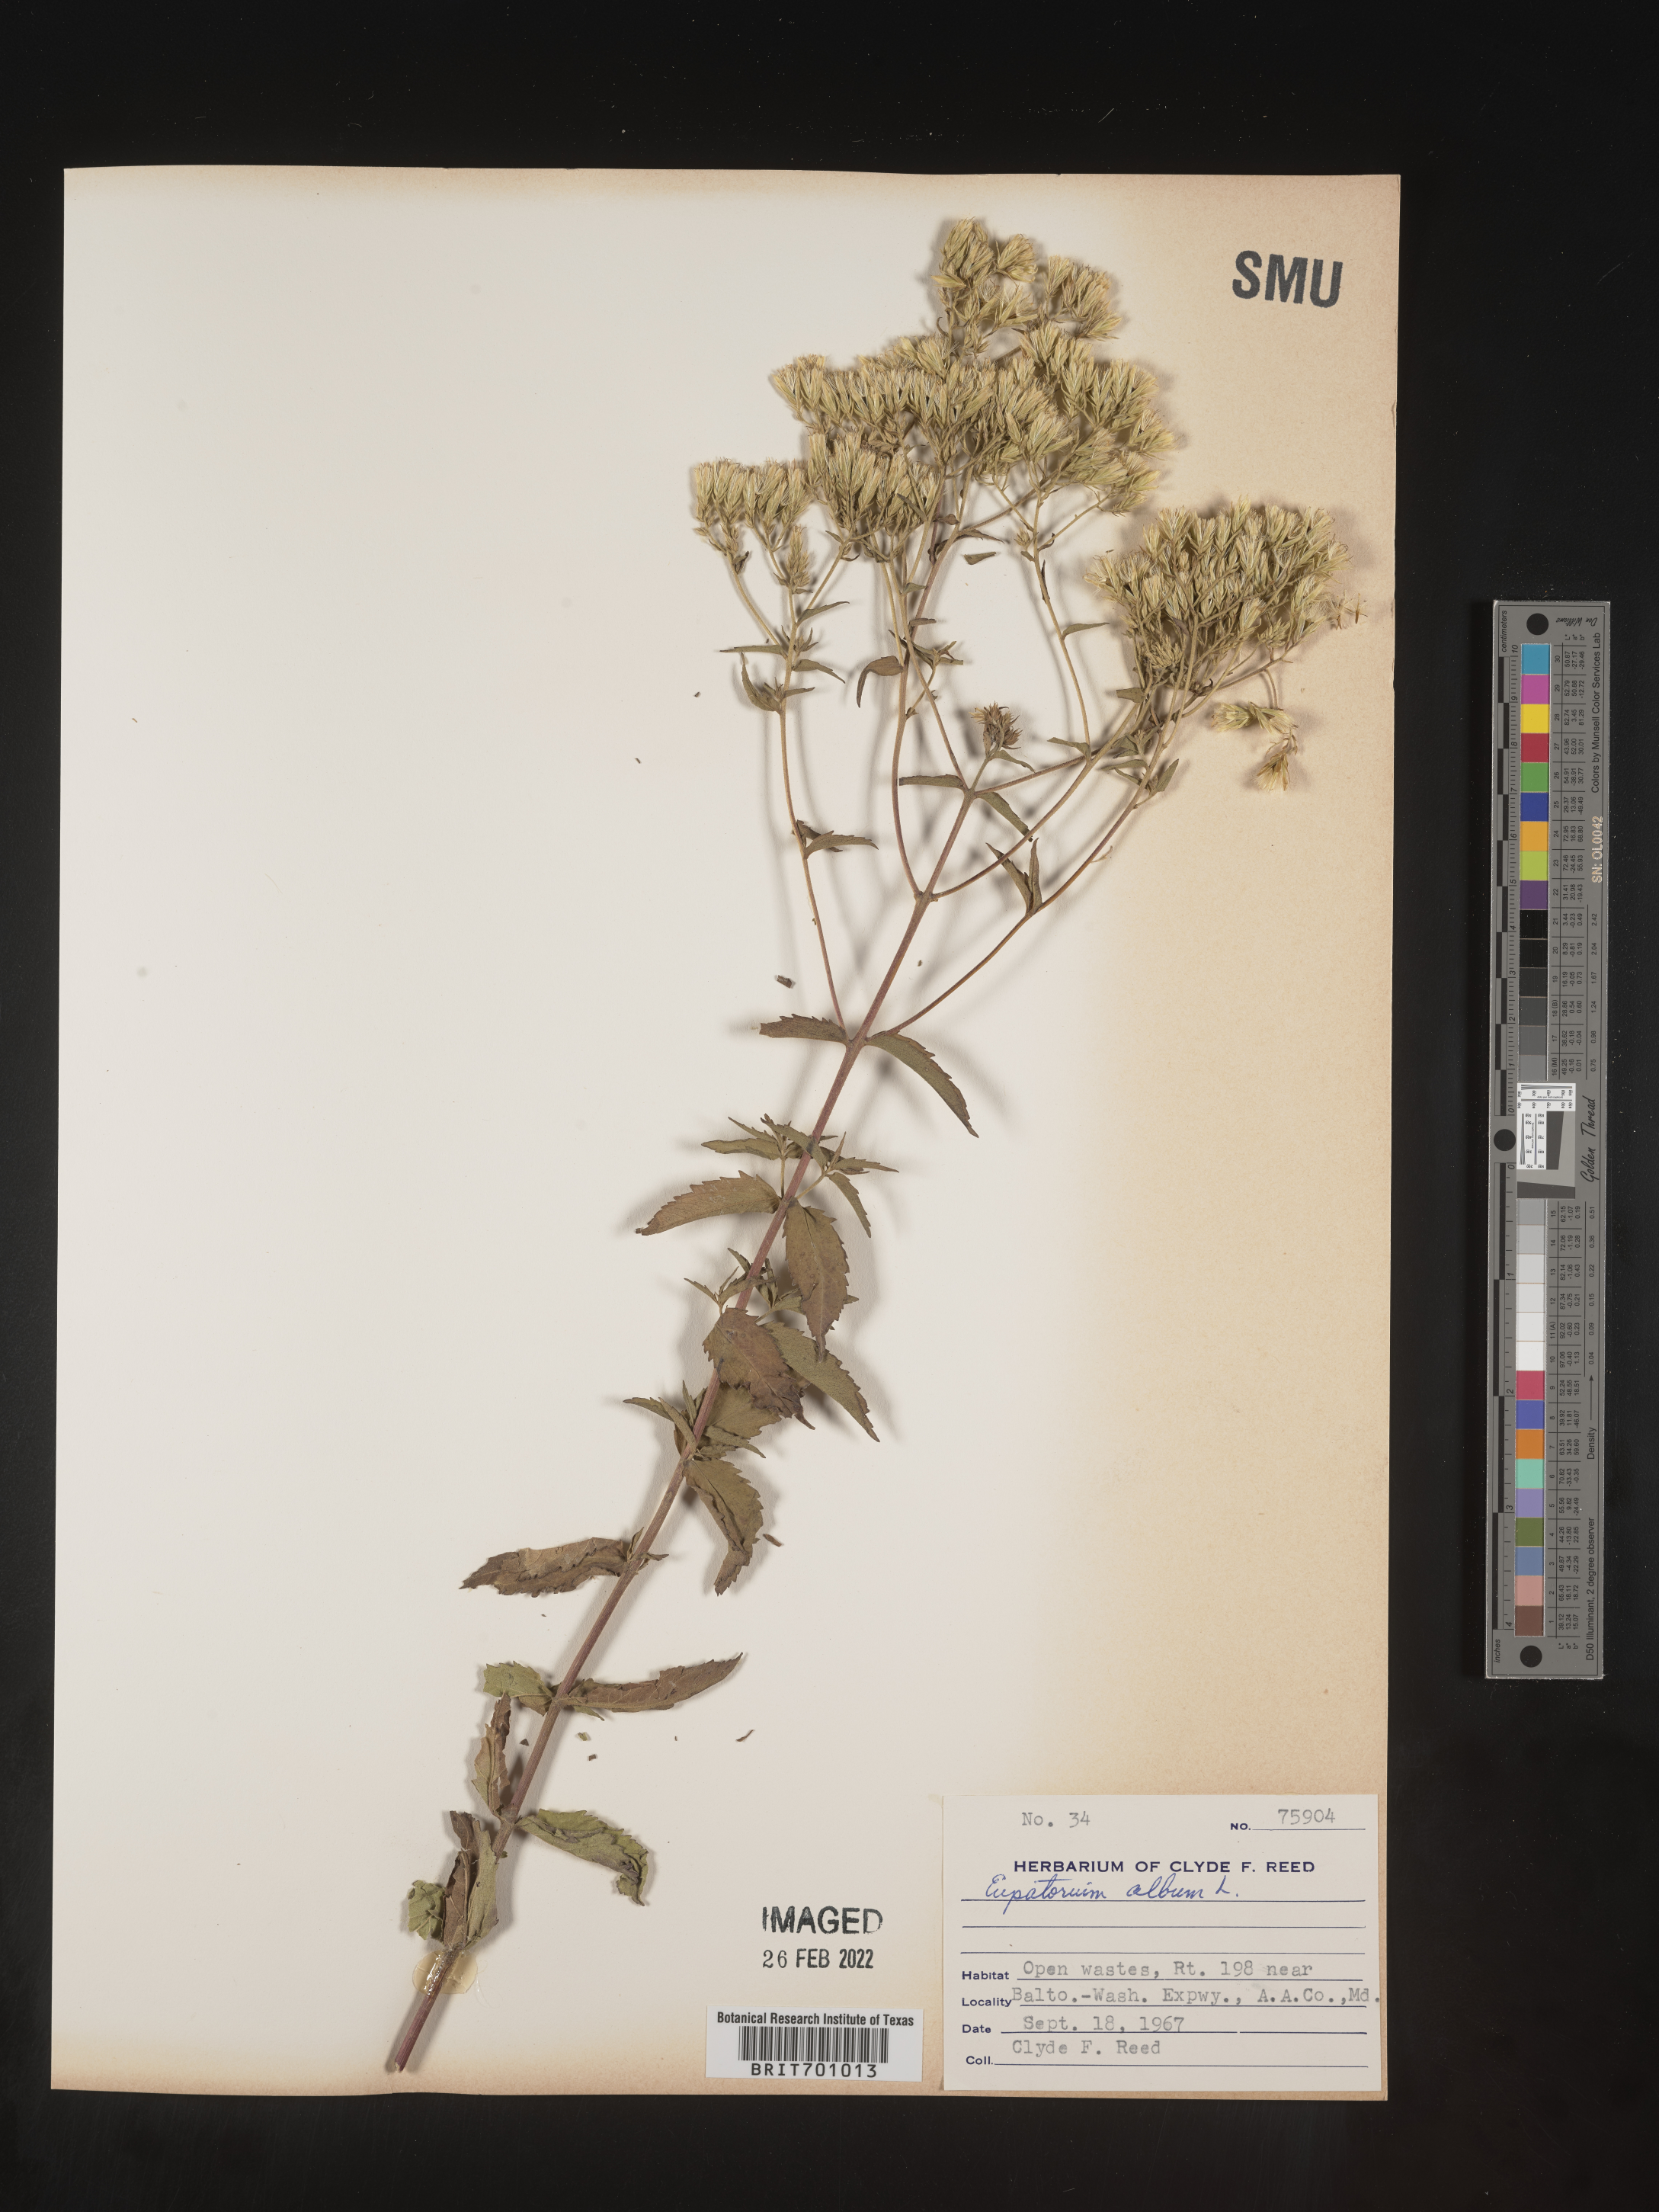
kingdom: Plantae
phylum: Tracheophyta
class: Magnoliopsida
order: Asterales
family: Asteraceae
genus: Eupatorium
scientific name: Eupatorium album
